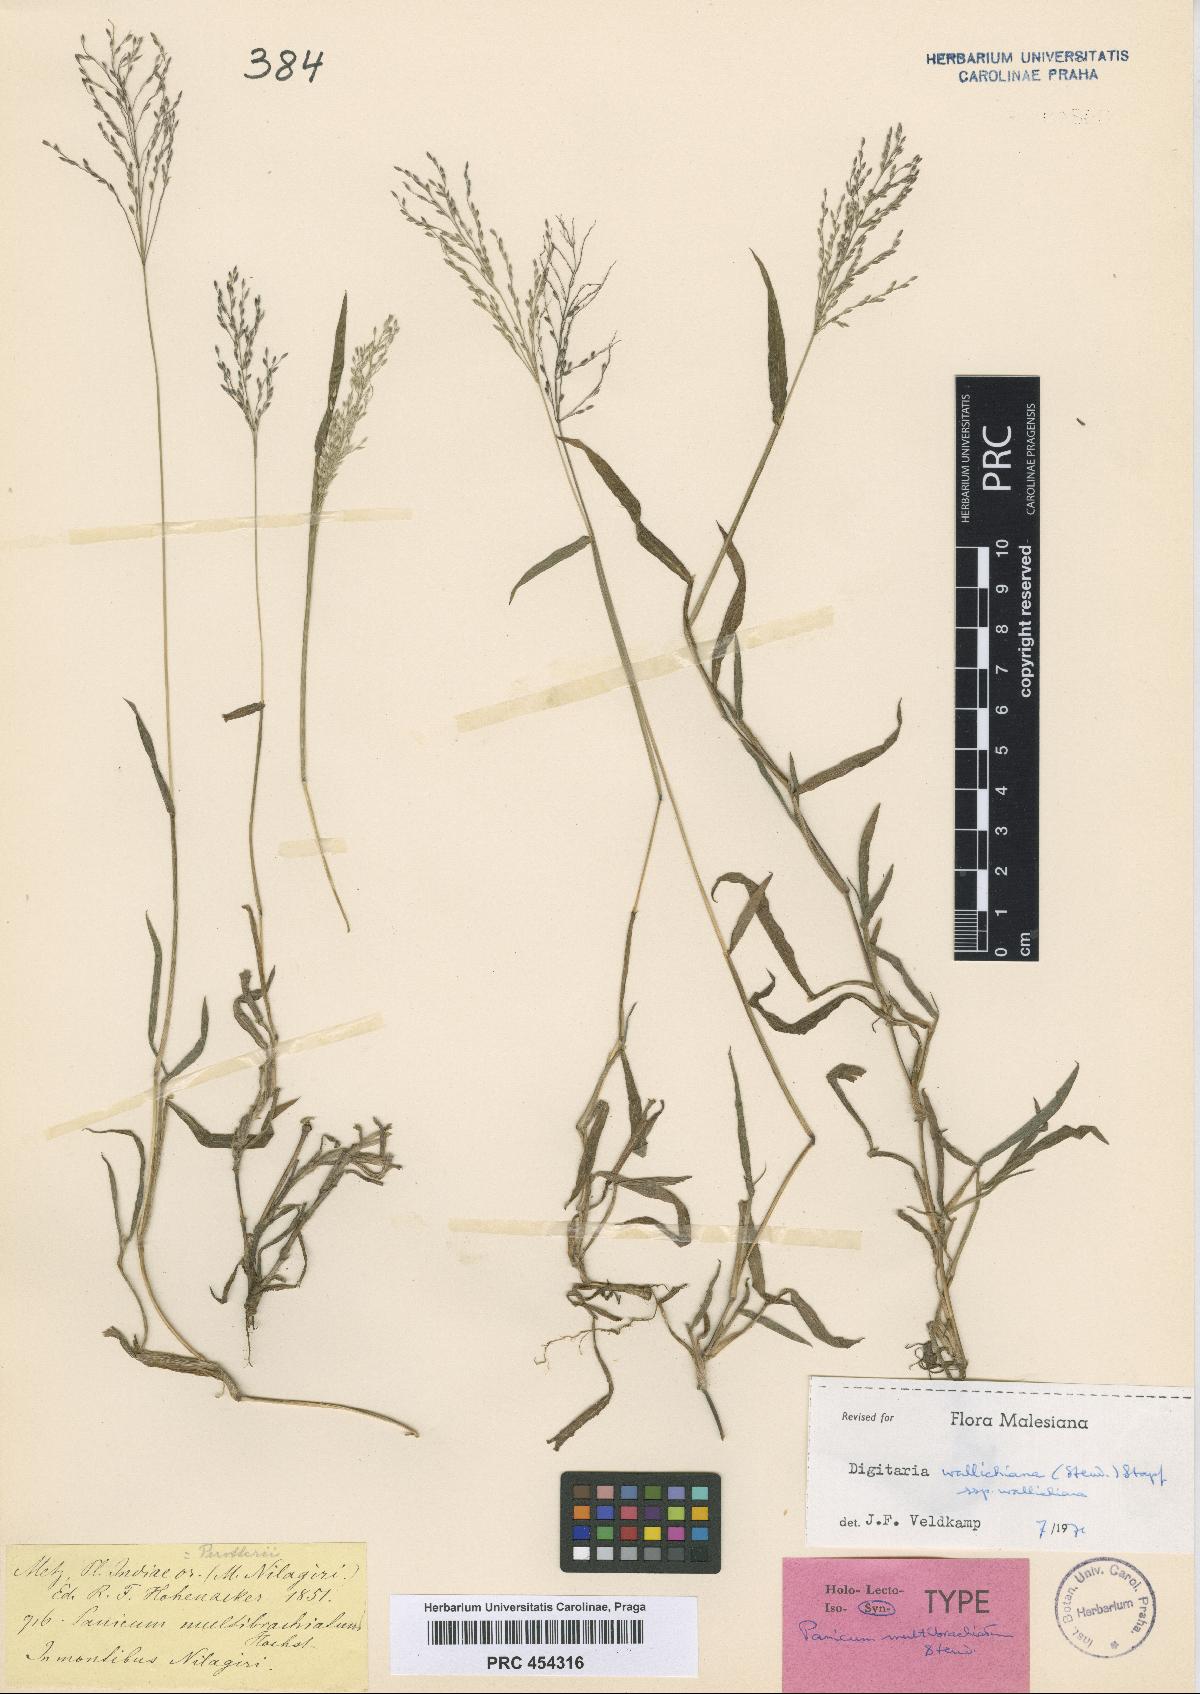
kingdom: Plantae
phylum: Tracheophyta
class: Liliopsida
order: Poales
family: Poaceae
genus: Digitaria
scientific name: Digitaria wallichiana
